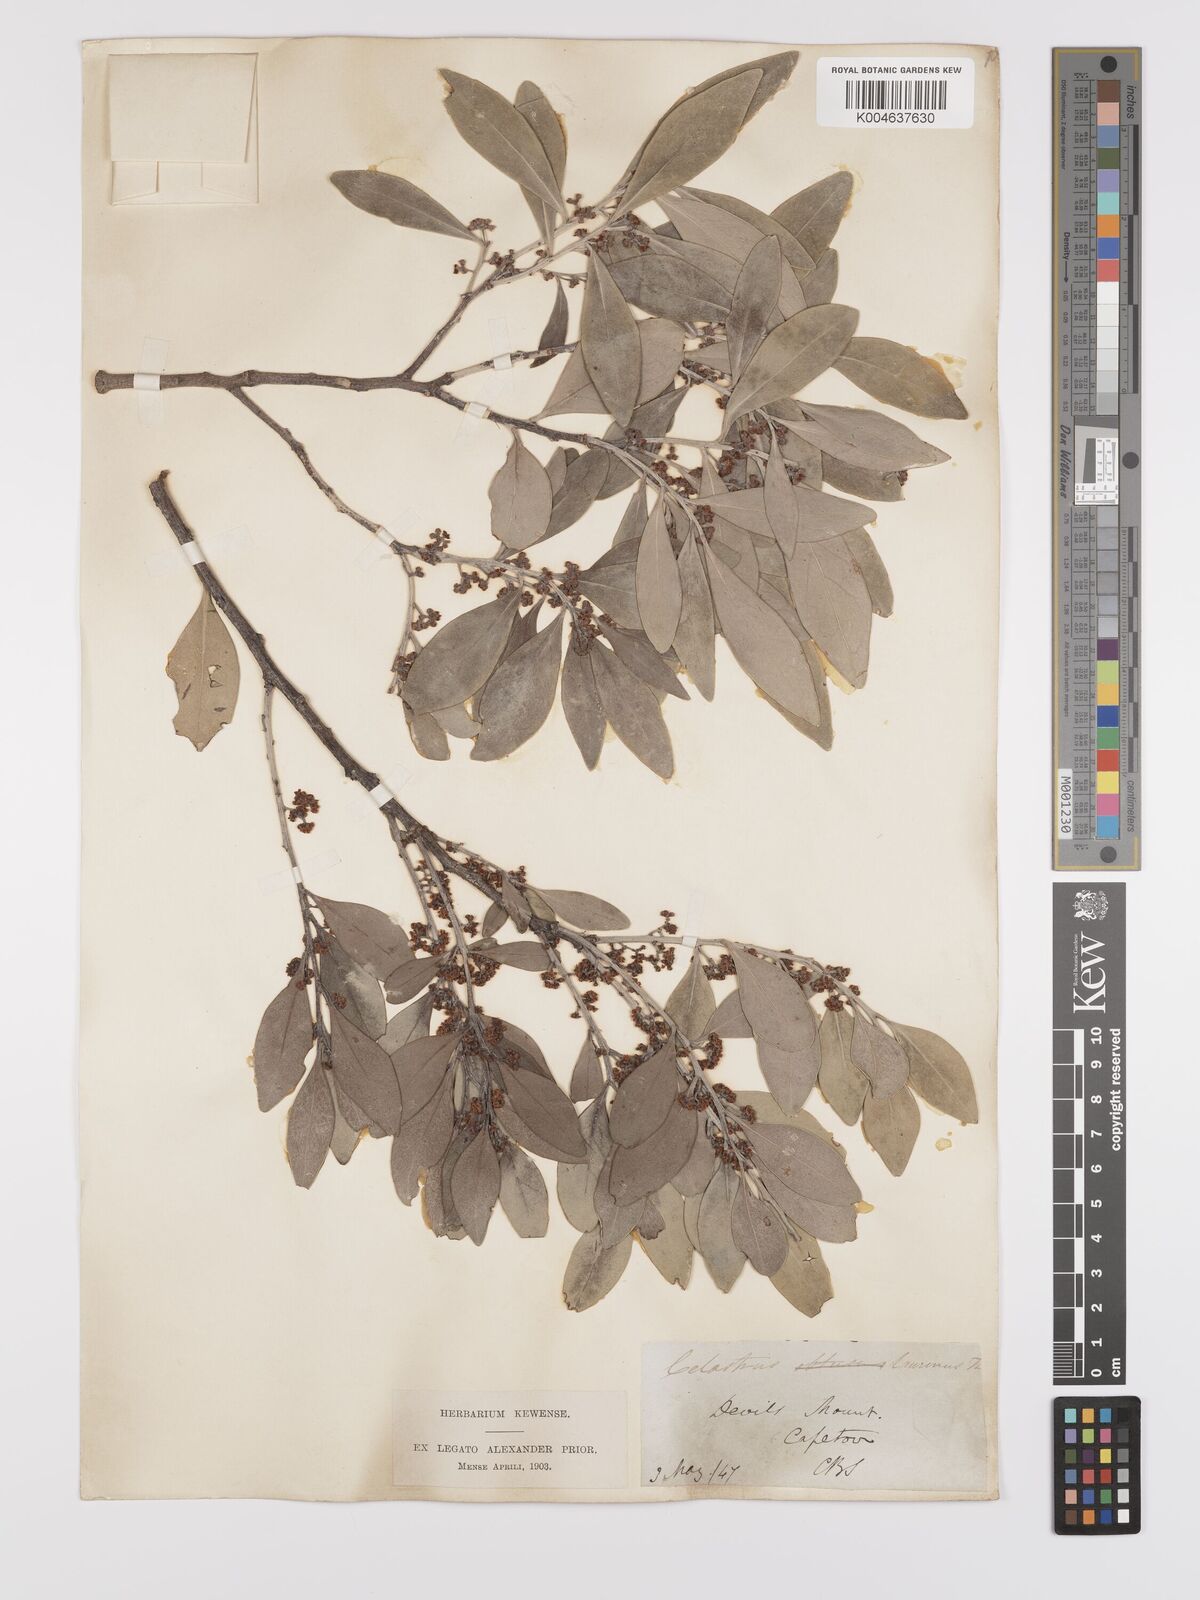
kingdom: Plantae
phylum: Tracheophyta
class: Magnoliopsida
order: Celastrales
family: Celastraceae
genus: Gymnosporia
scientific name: Gymnosporia laurina
